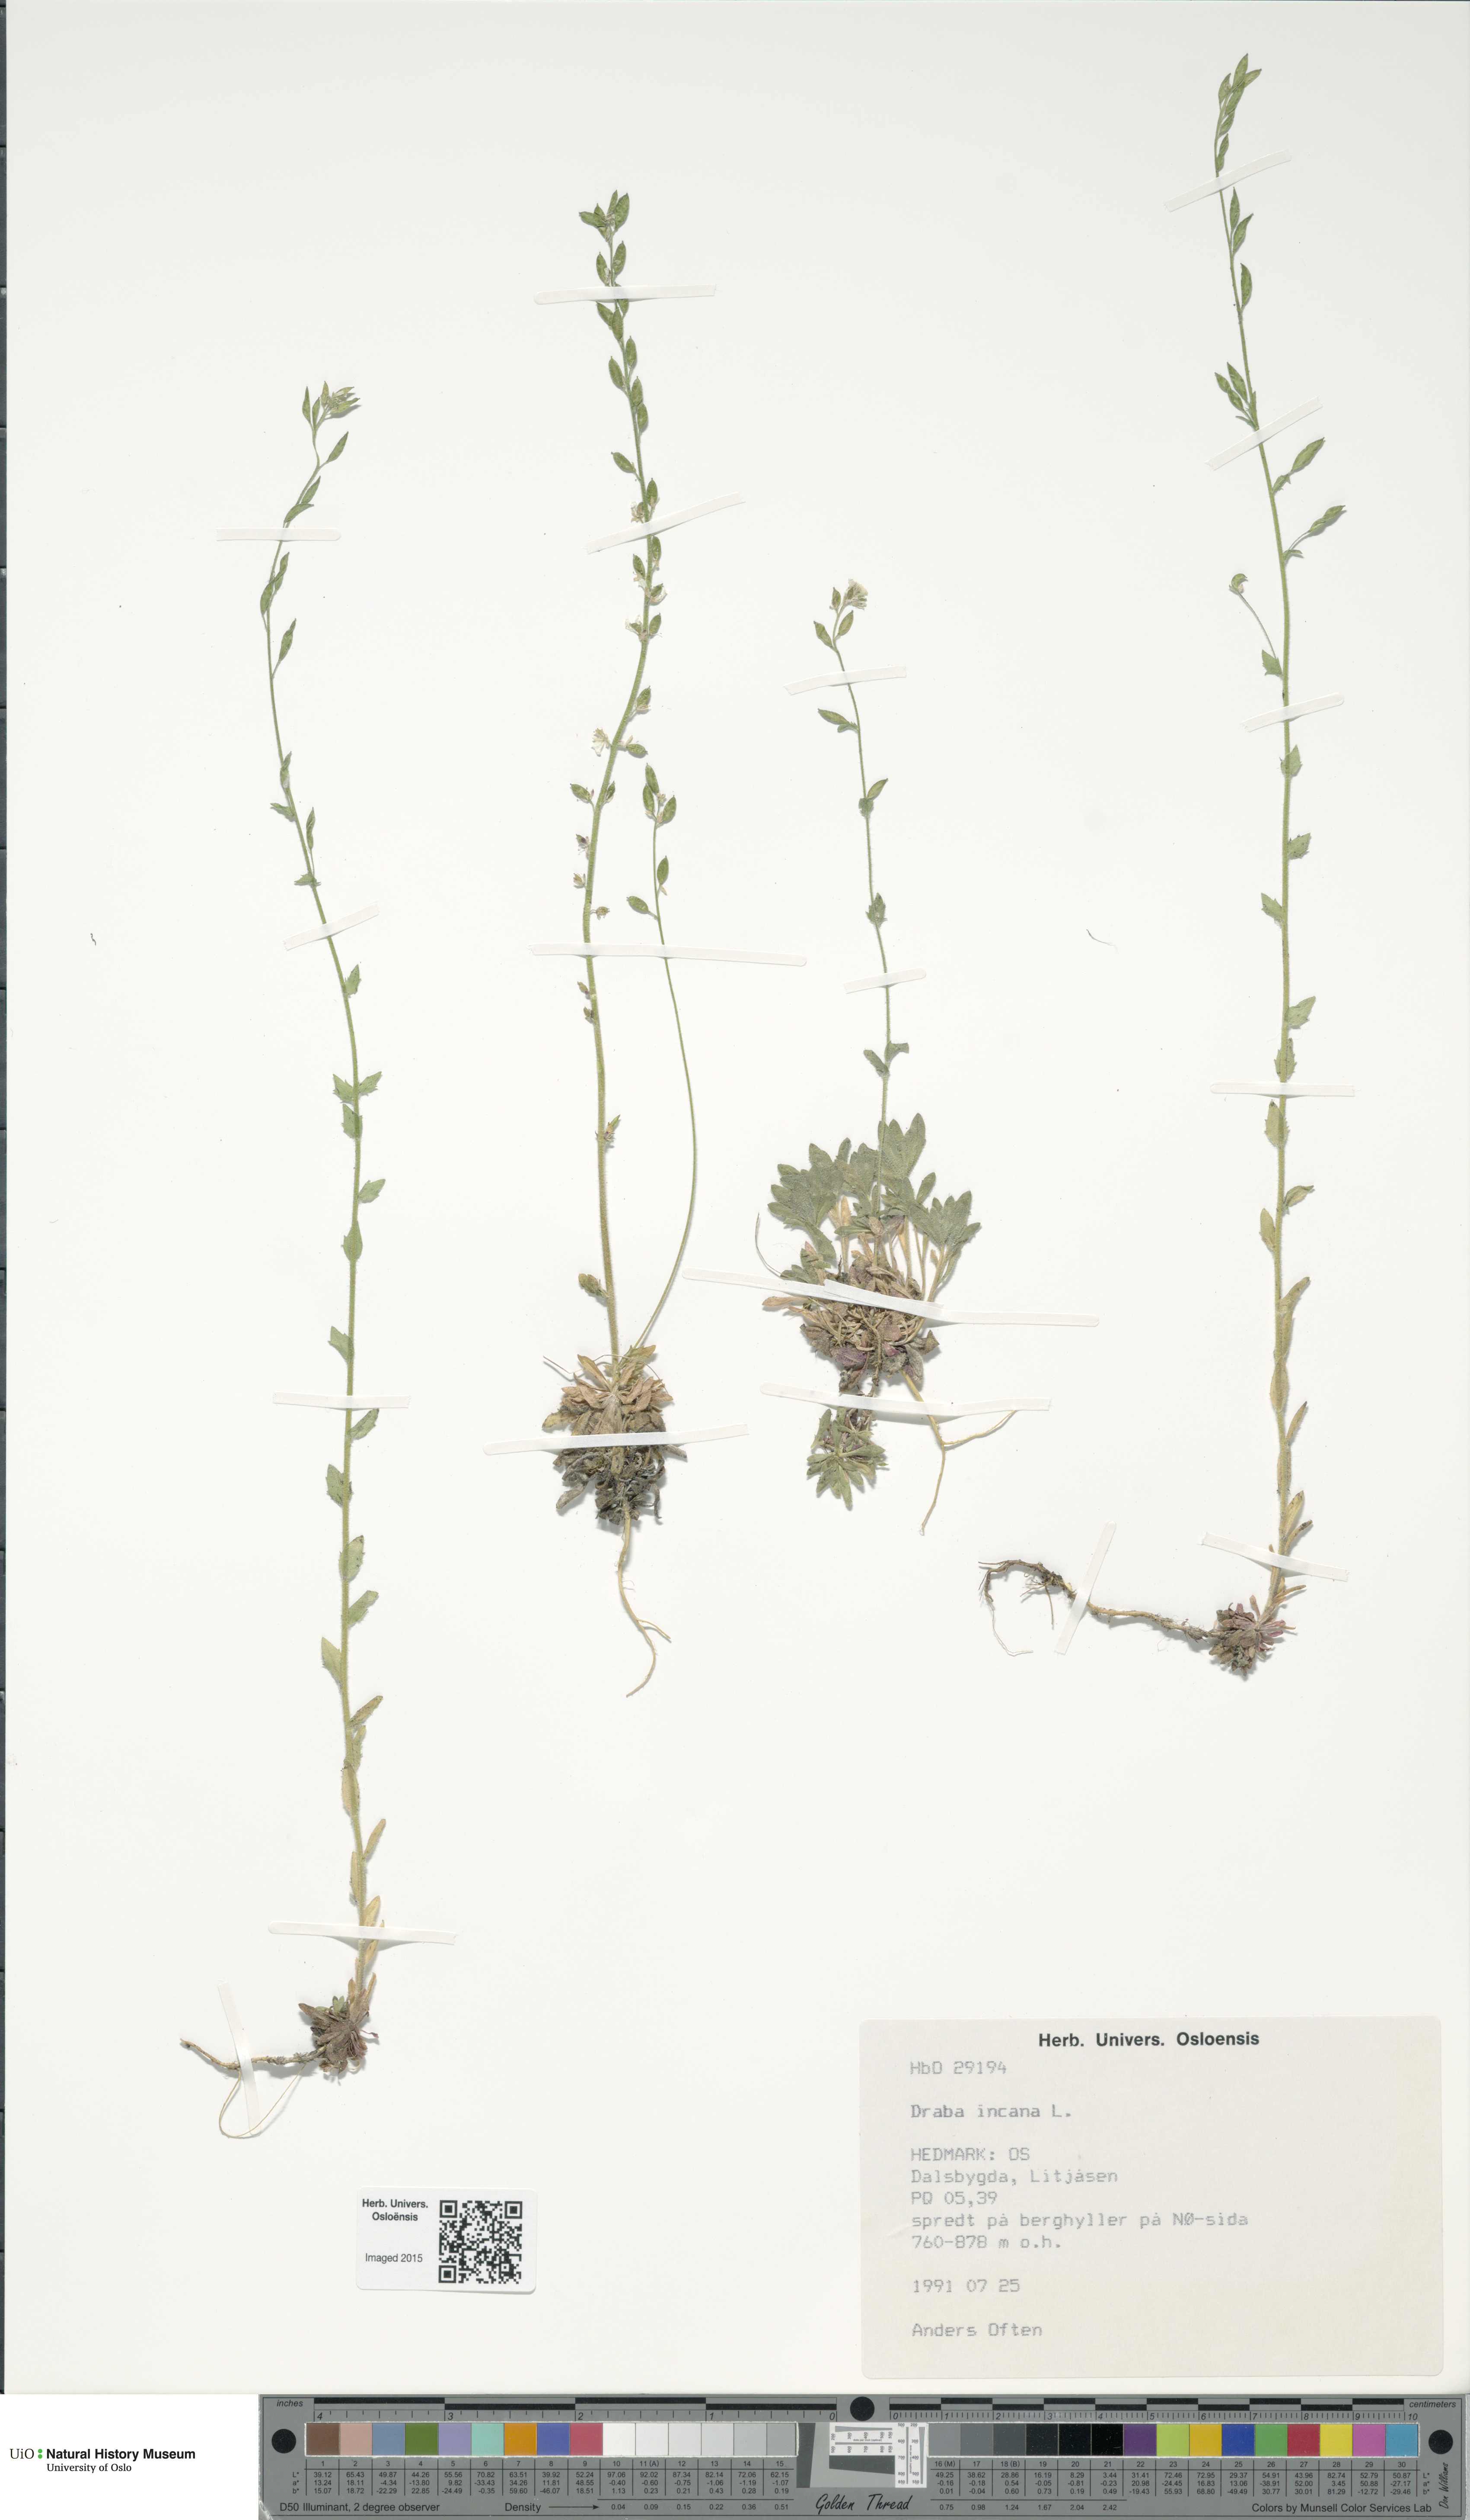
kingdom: Plantae
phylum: Tracheophyta
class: Magnoliopsida
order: Brassicales
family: Brassicaceae
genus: Draba
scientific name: Draba incana
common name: Hoary whitlow-grass
